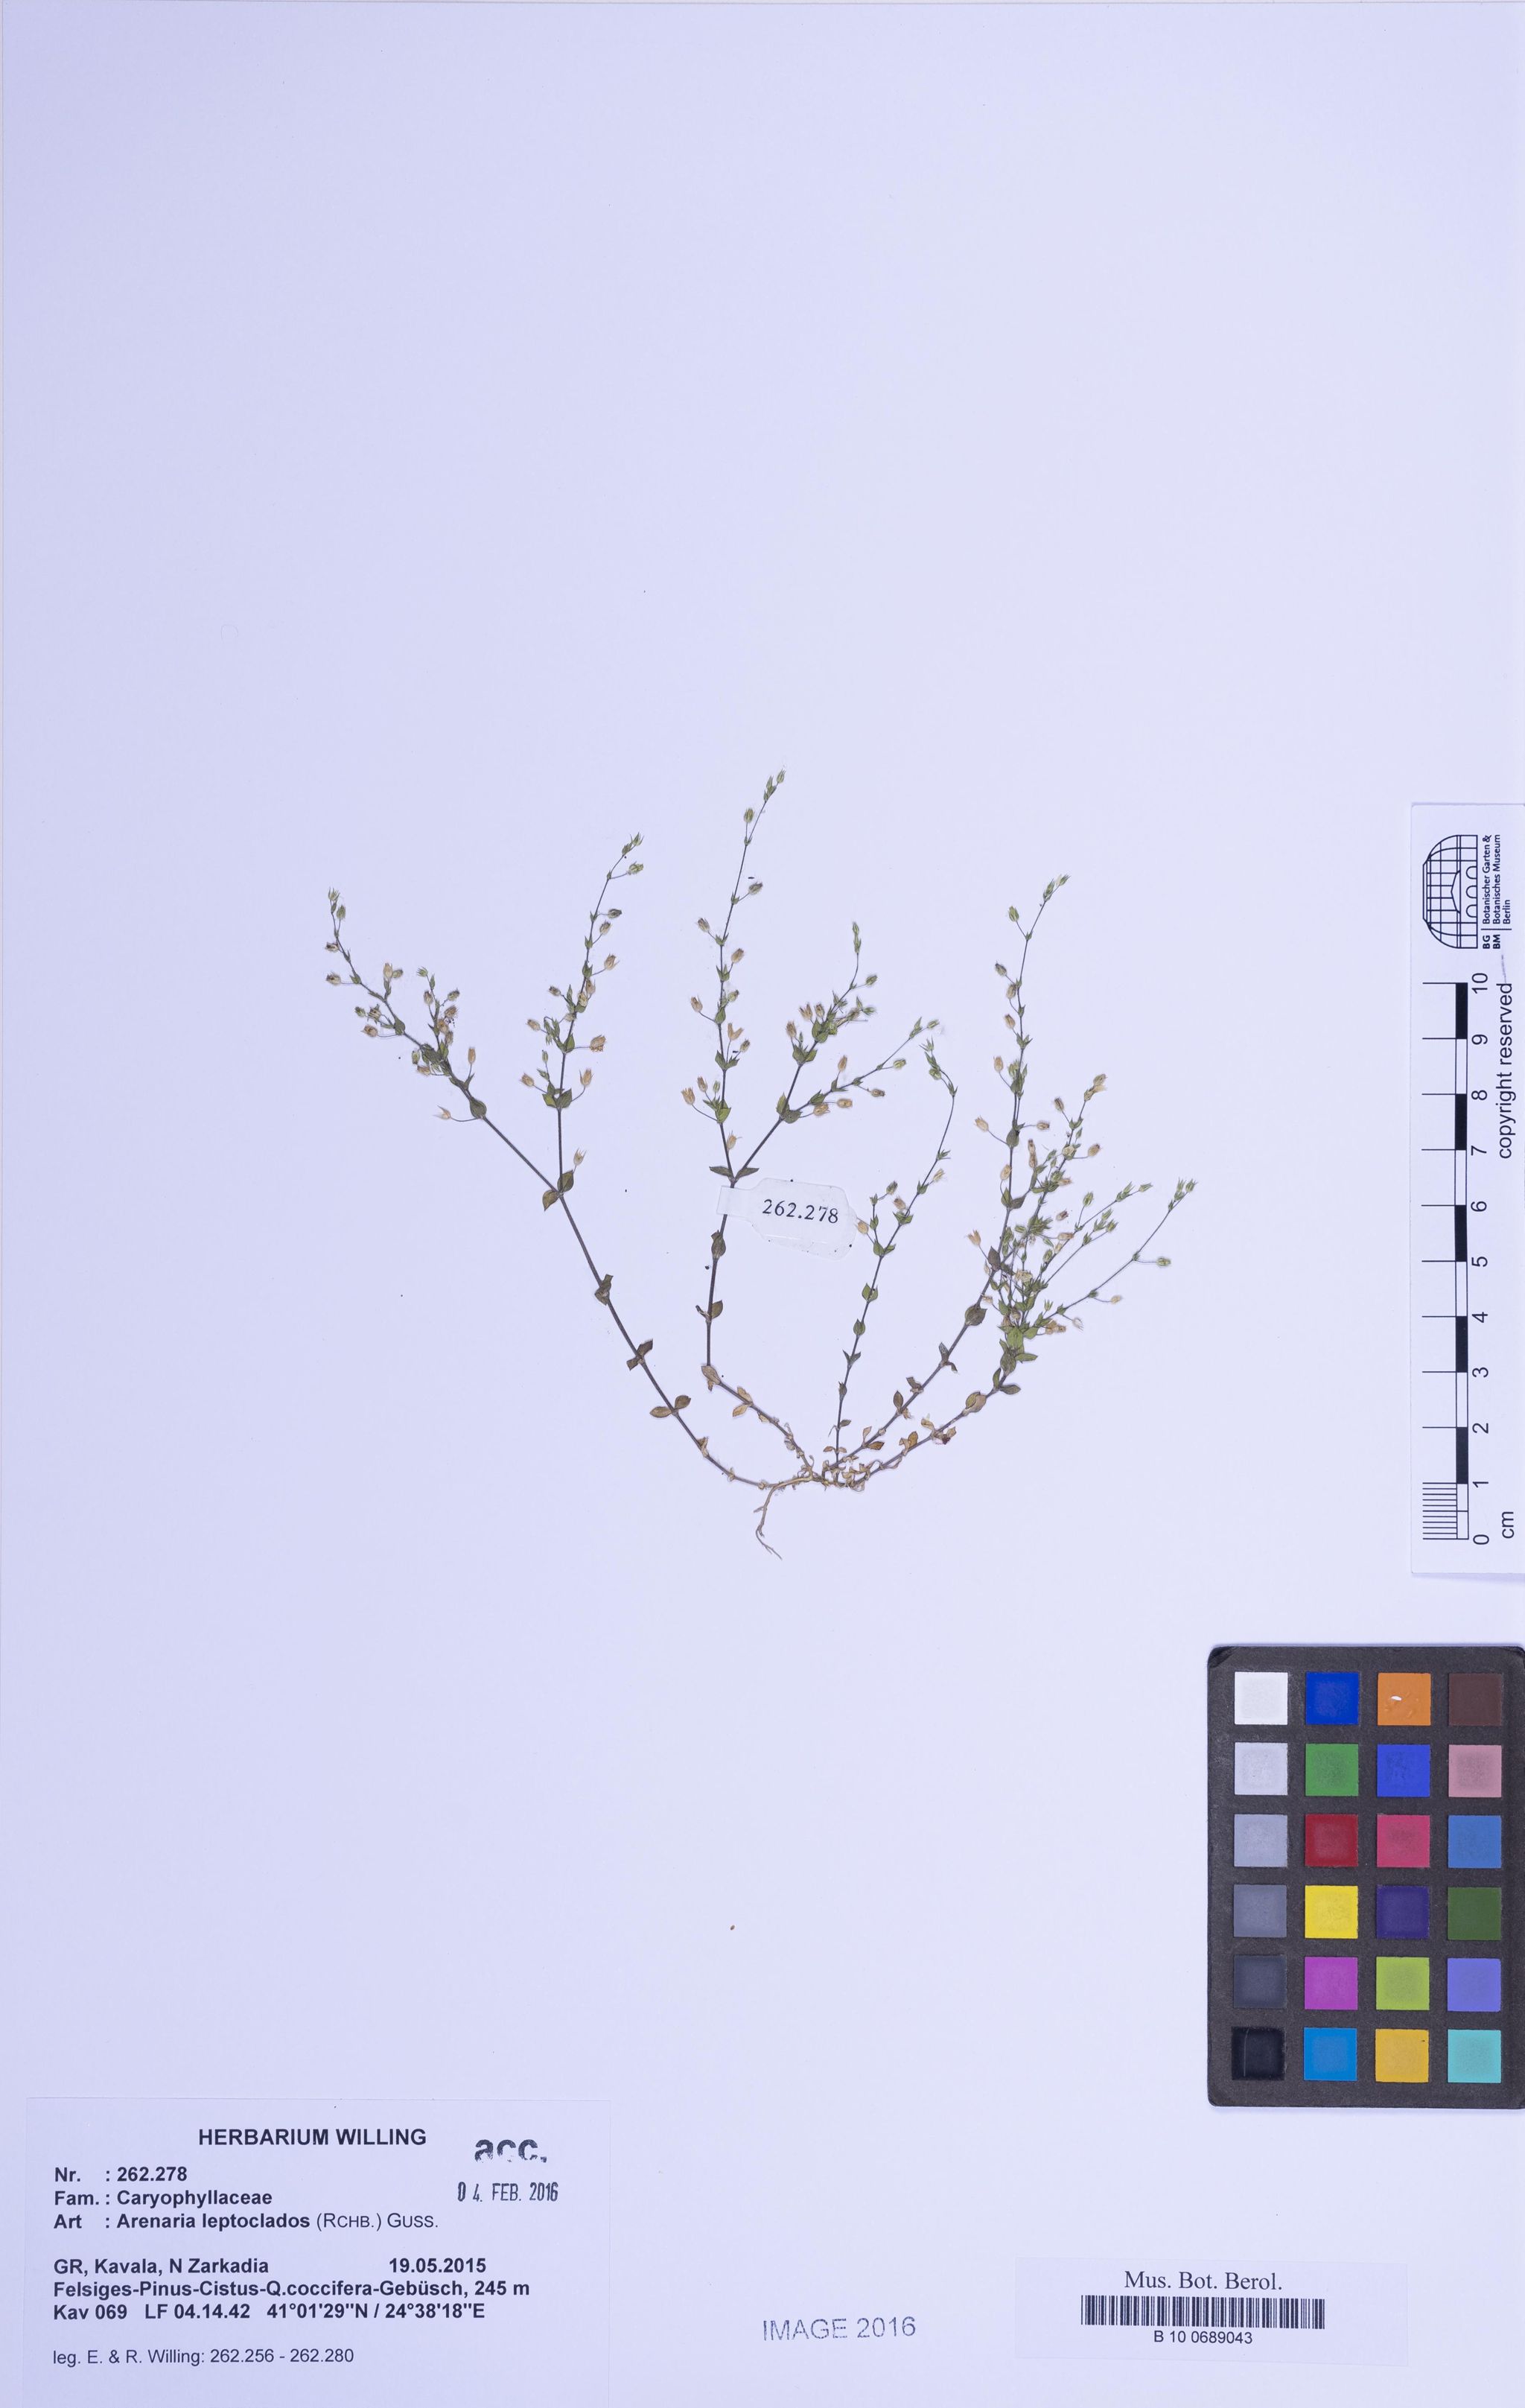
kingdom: Plantae
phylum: Tracheophyta
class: Magnoliopsida
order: Caryophyllales
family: Caryophyllaceae
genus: Arenaria
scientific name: Arenaria leptoclados
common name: Thyme-leaved sandwort
